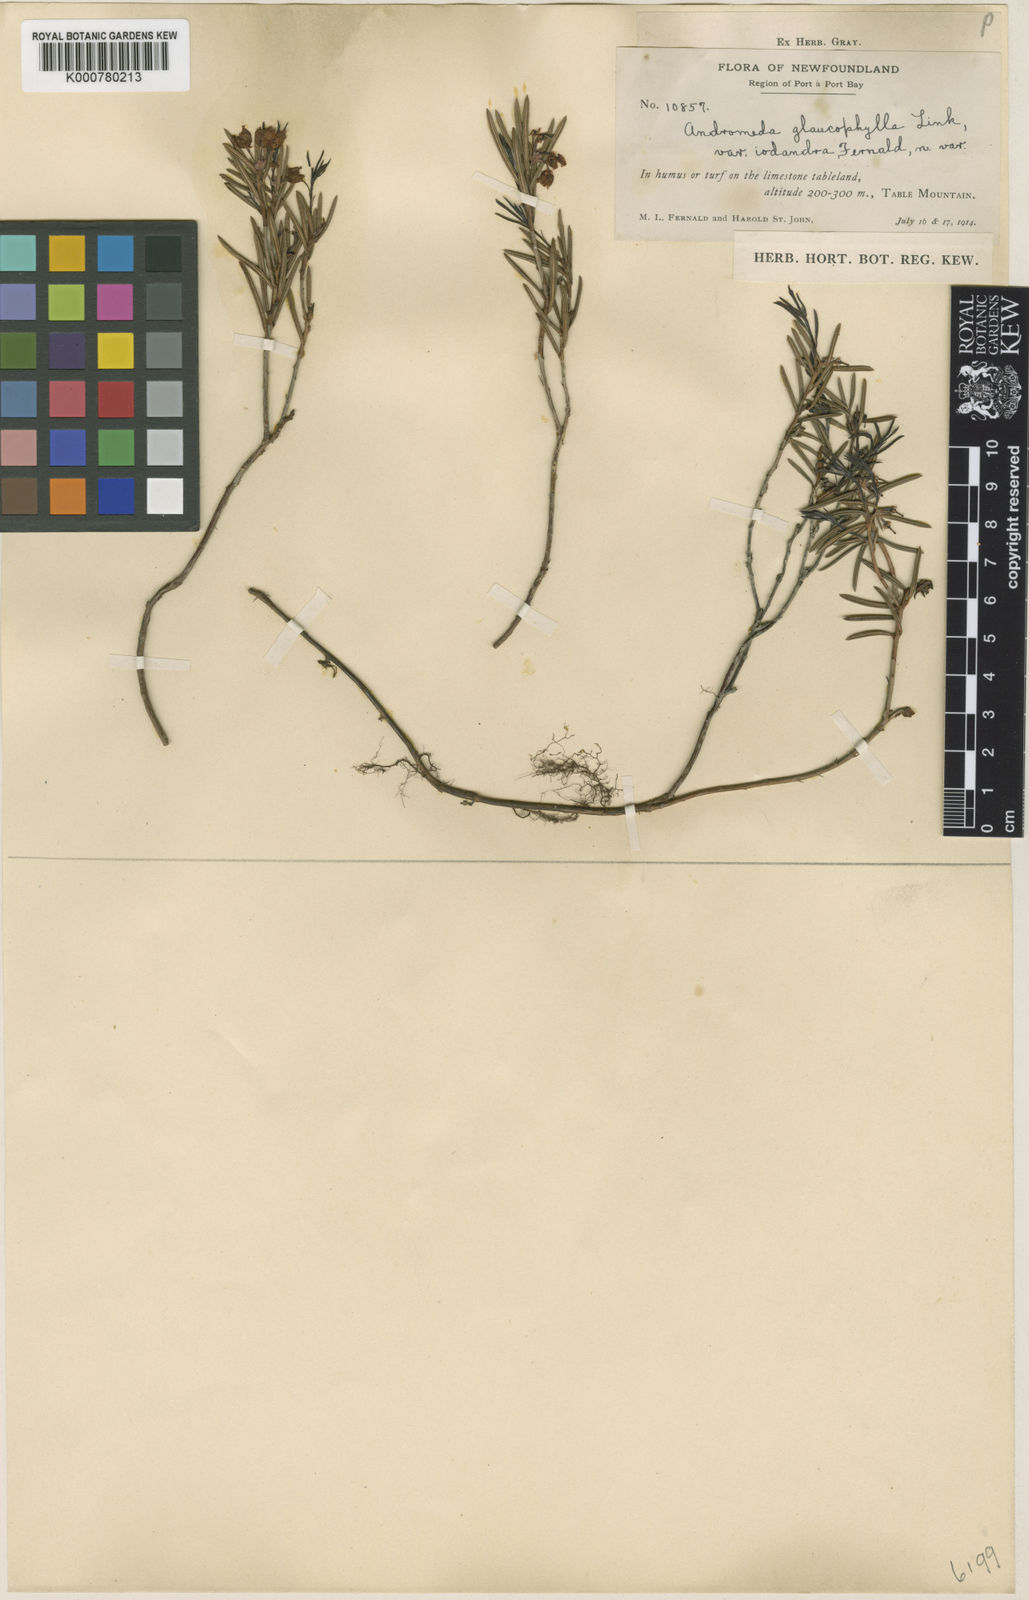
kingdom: Plantae
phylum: Tracheophyta
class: Magnoliopsida
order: Ericales
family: Ericaceae
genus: Andromeda
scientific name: Andromeda polifolia
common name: Bog-rosemary
